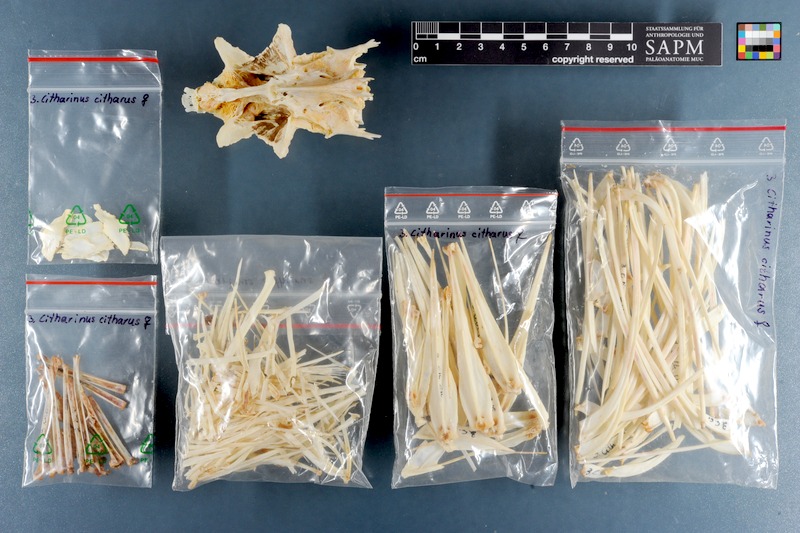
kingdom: Animalia
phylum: Chordata
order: Characiformes
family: Citharinidae
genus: Citharinus
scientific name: Citharinus citharus
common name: Moon fish
